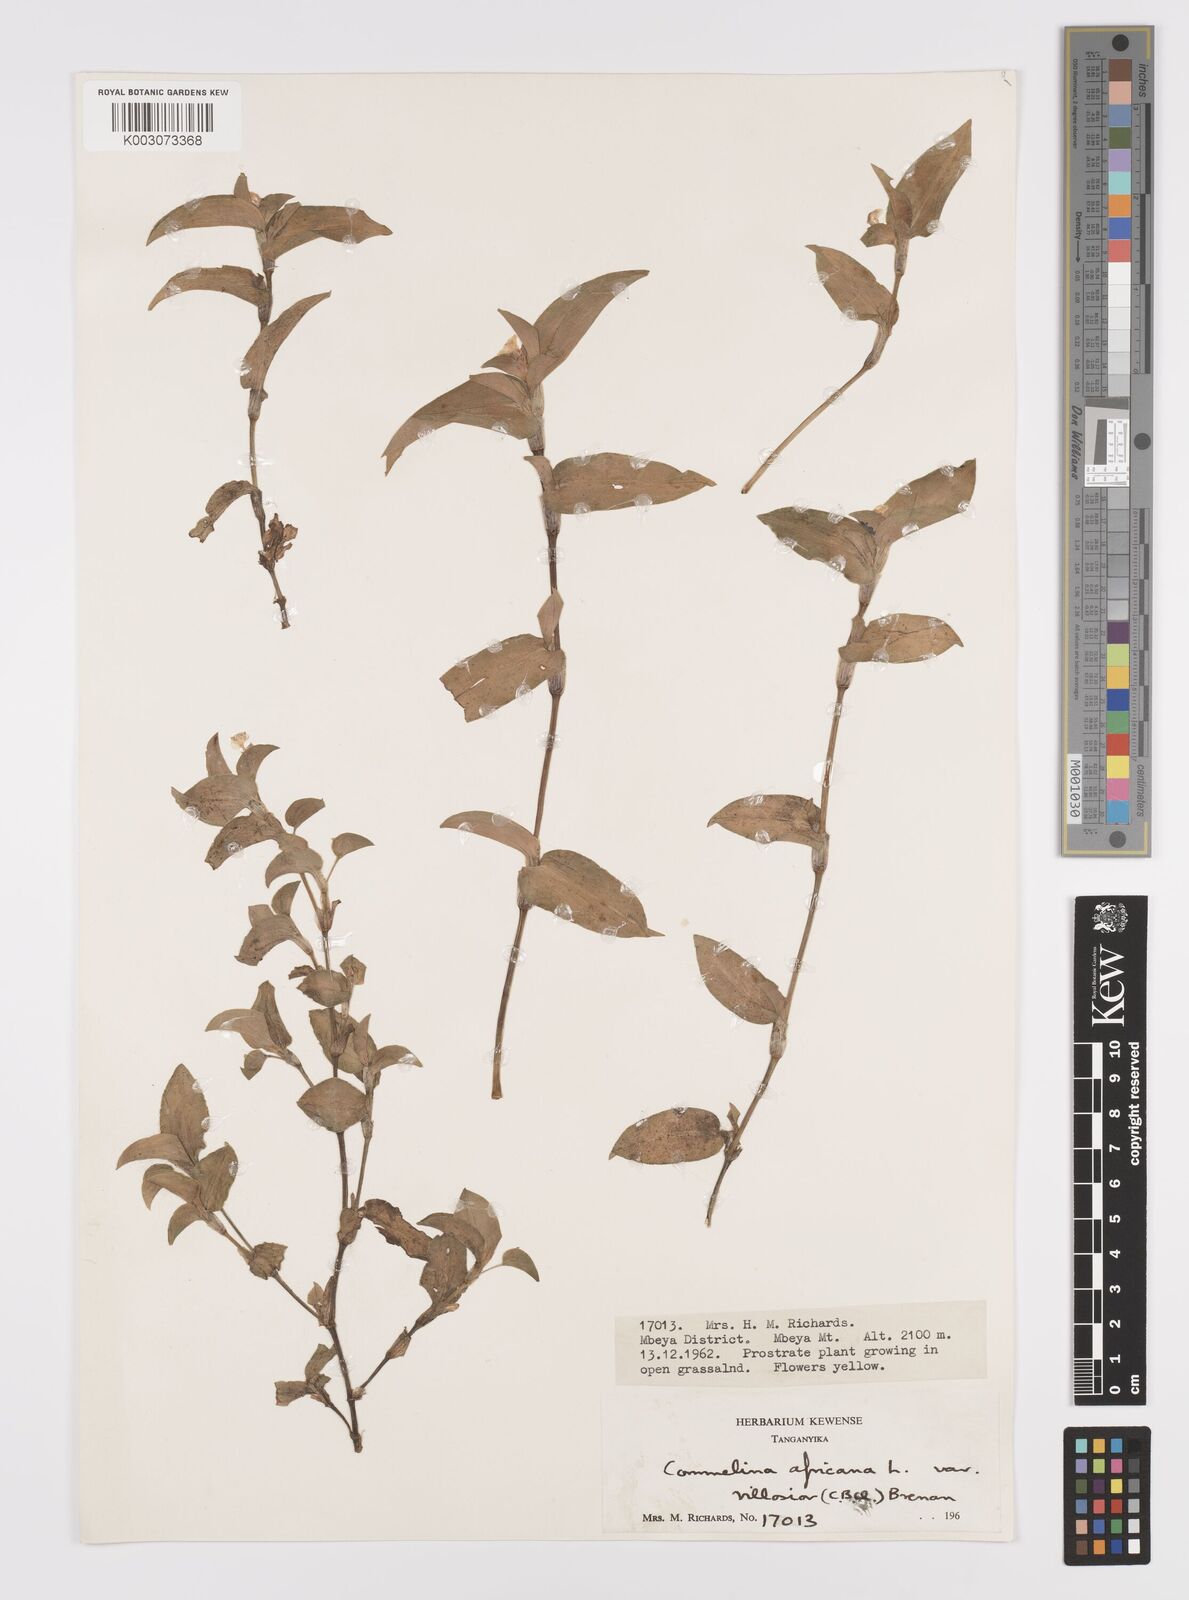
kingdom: Plantae
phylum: Tracheophyta
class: Liliopsida
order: Commelinales
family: Commelinaceae
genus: Commelina
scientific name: Commelina africana
